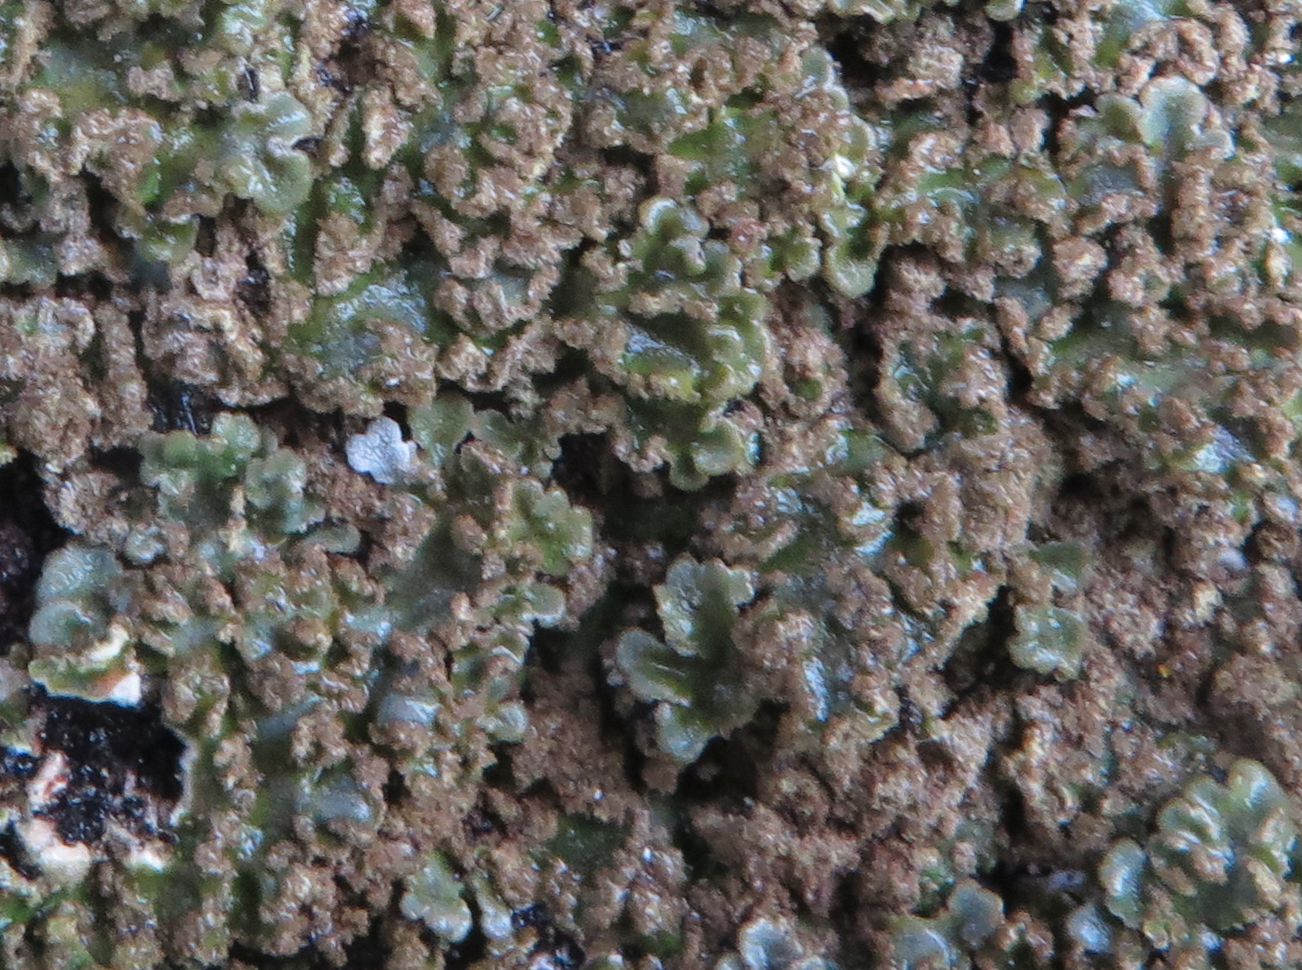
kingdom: Fungi
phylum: Ascomycota
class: Lecanoromycetes
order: Caliciales
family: Physciaceae
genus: Physconia
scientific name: Physconia perisidiosa
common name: liden dugrosetlav
